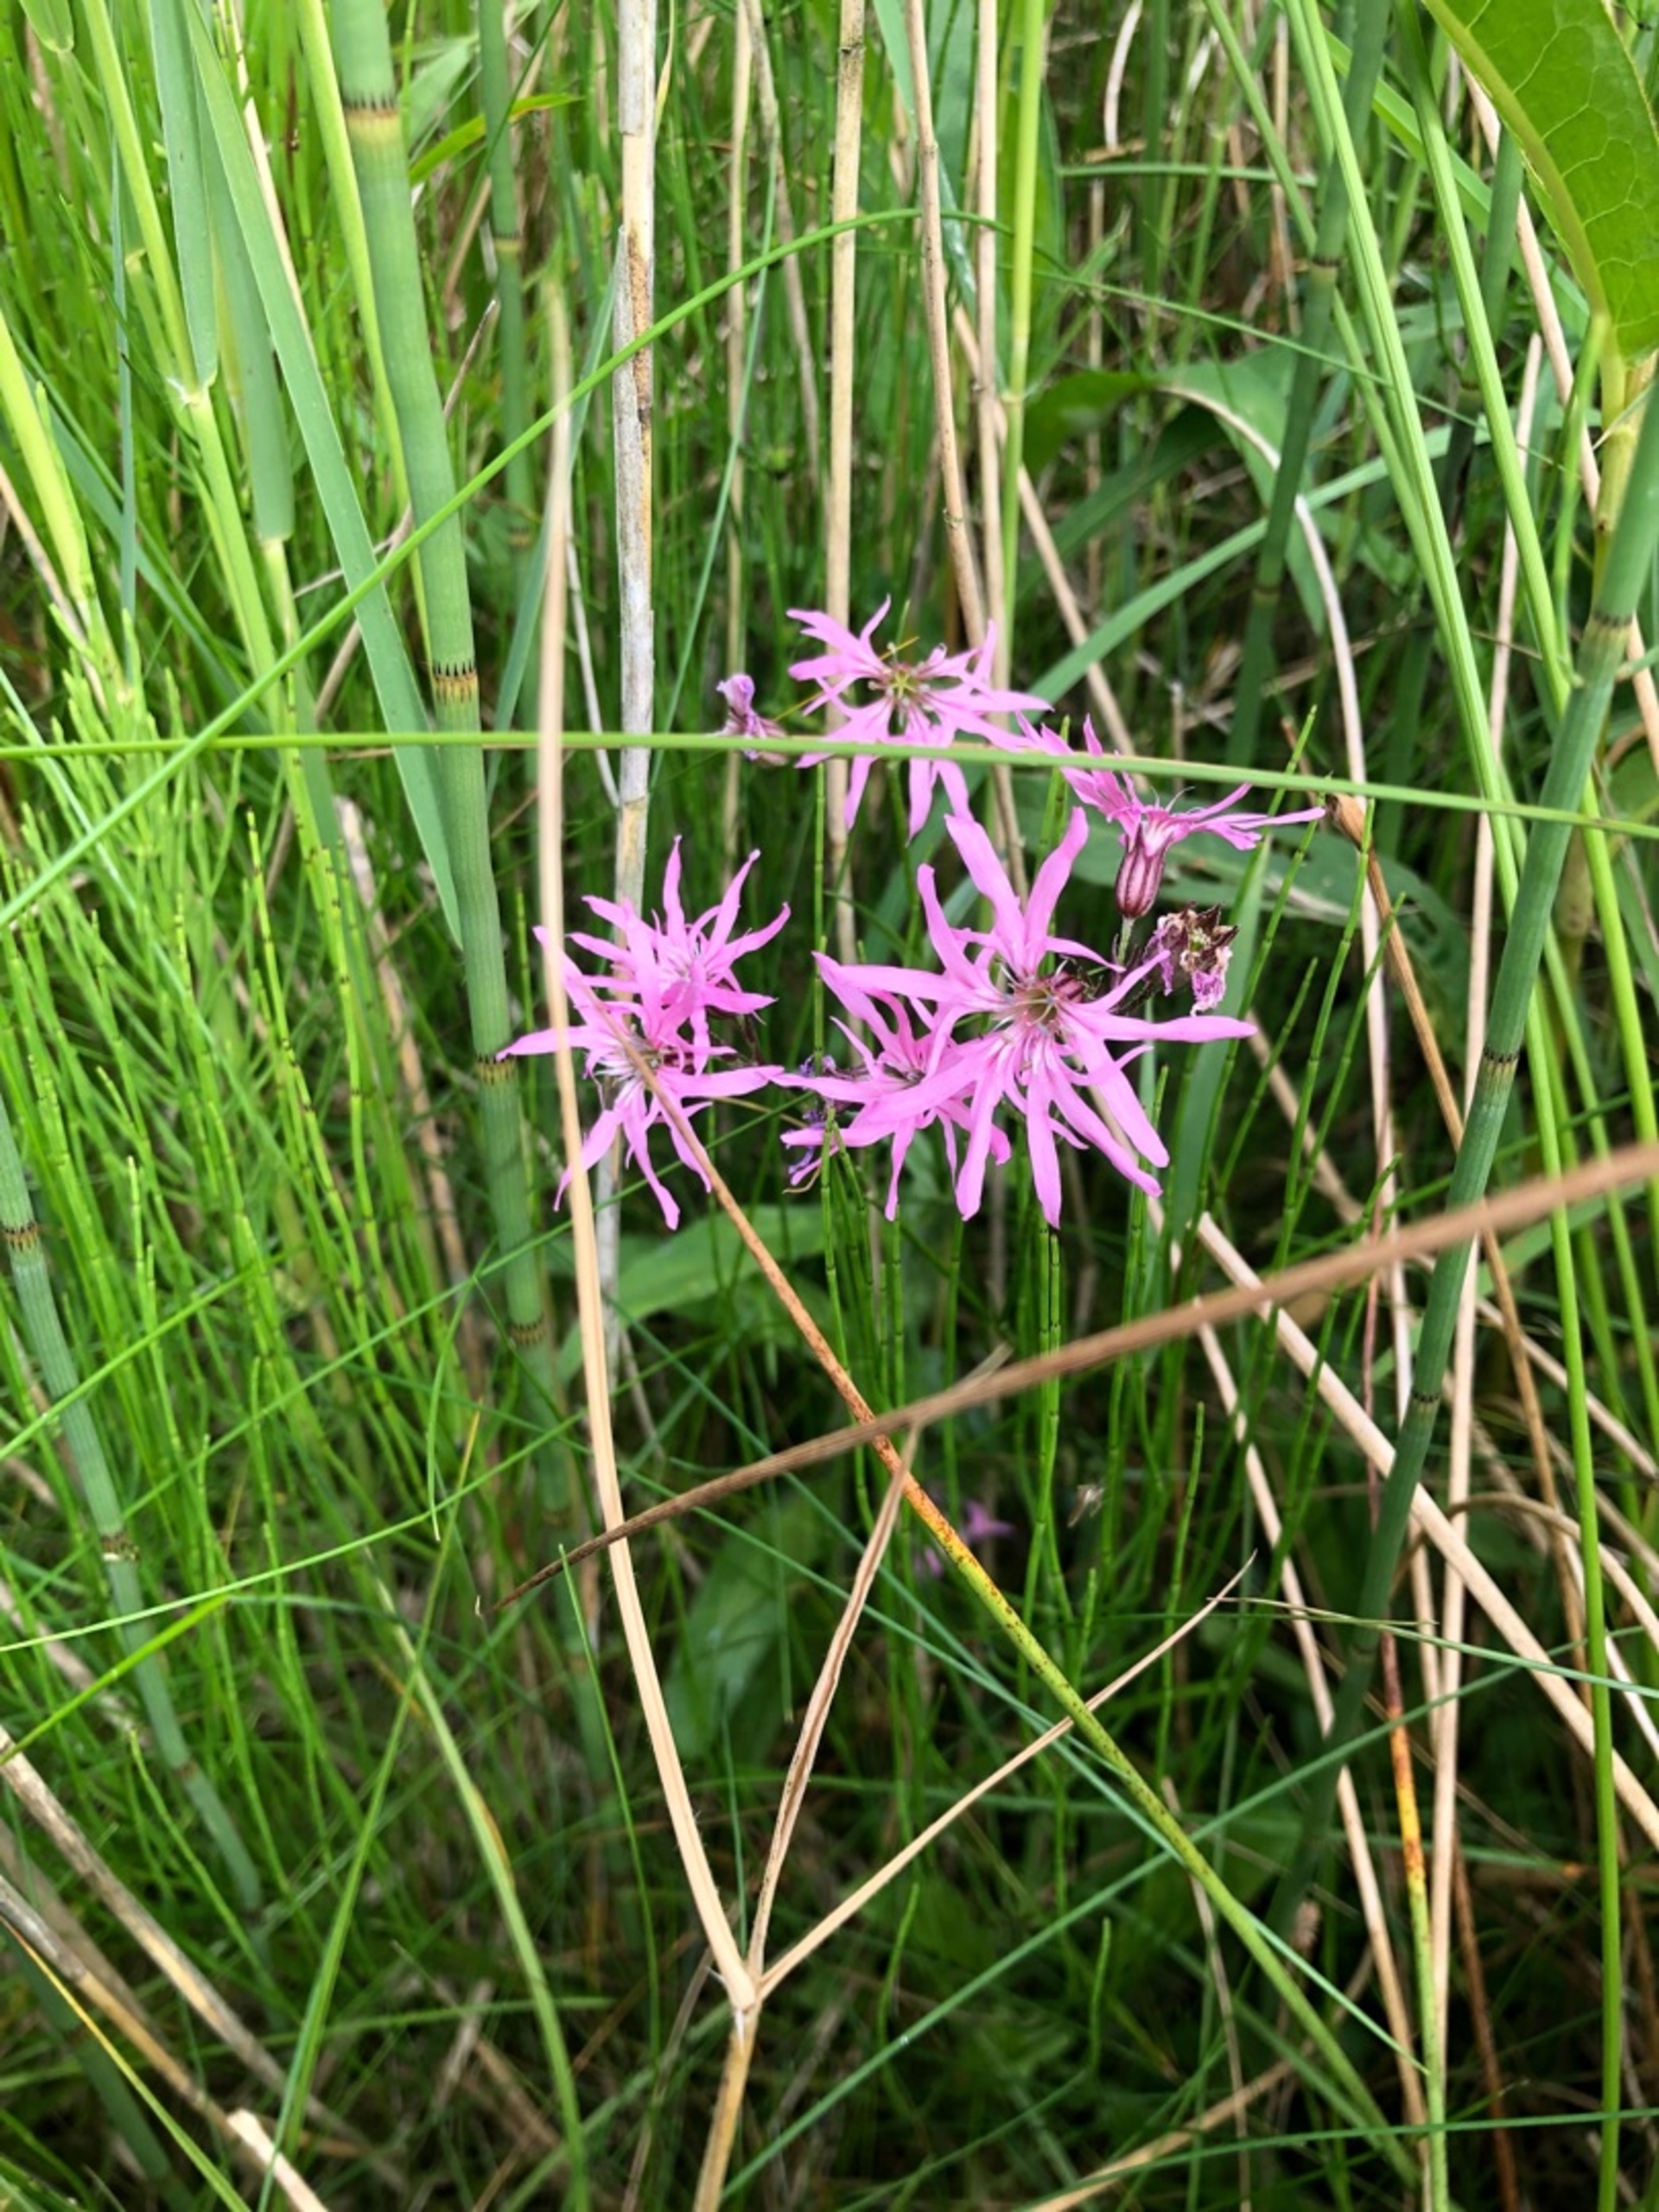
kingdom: Plantae
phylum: Tracheophyta
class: Magnoliopsida
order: Caryophyllales
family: Caryophyllaceae
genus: Silene
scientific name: Silene flos-cuculi
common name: Trævlekrone
